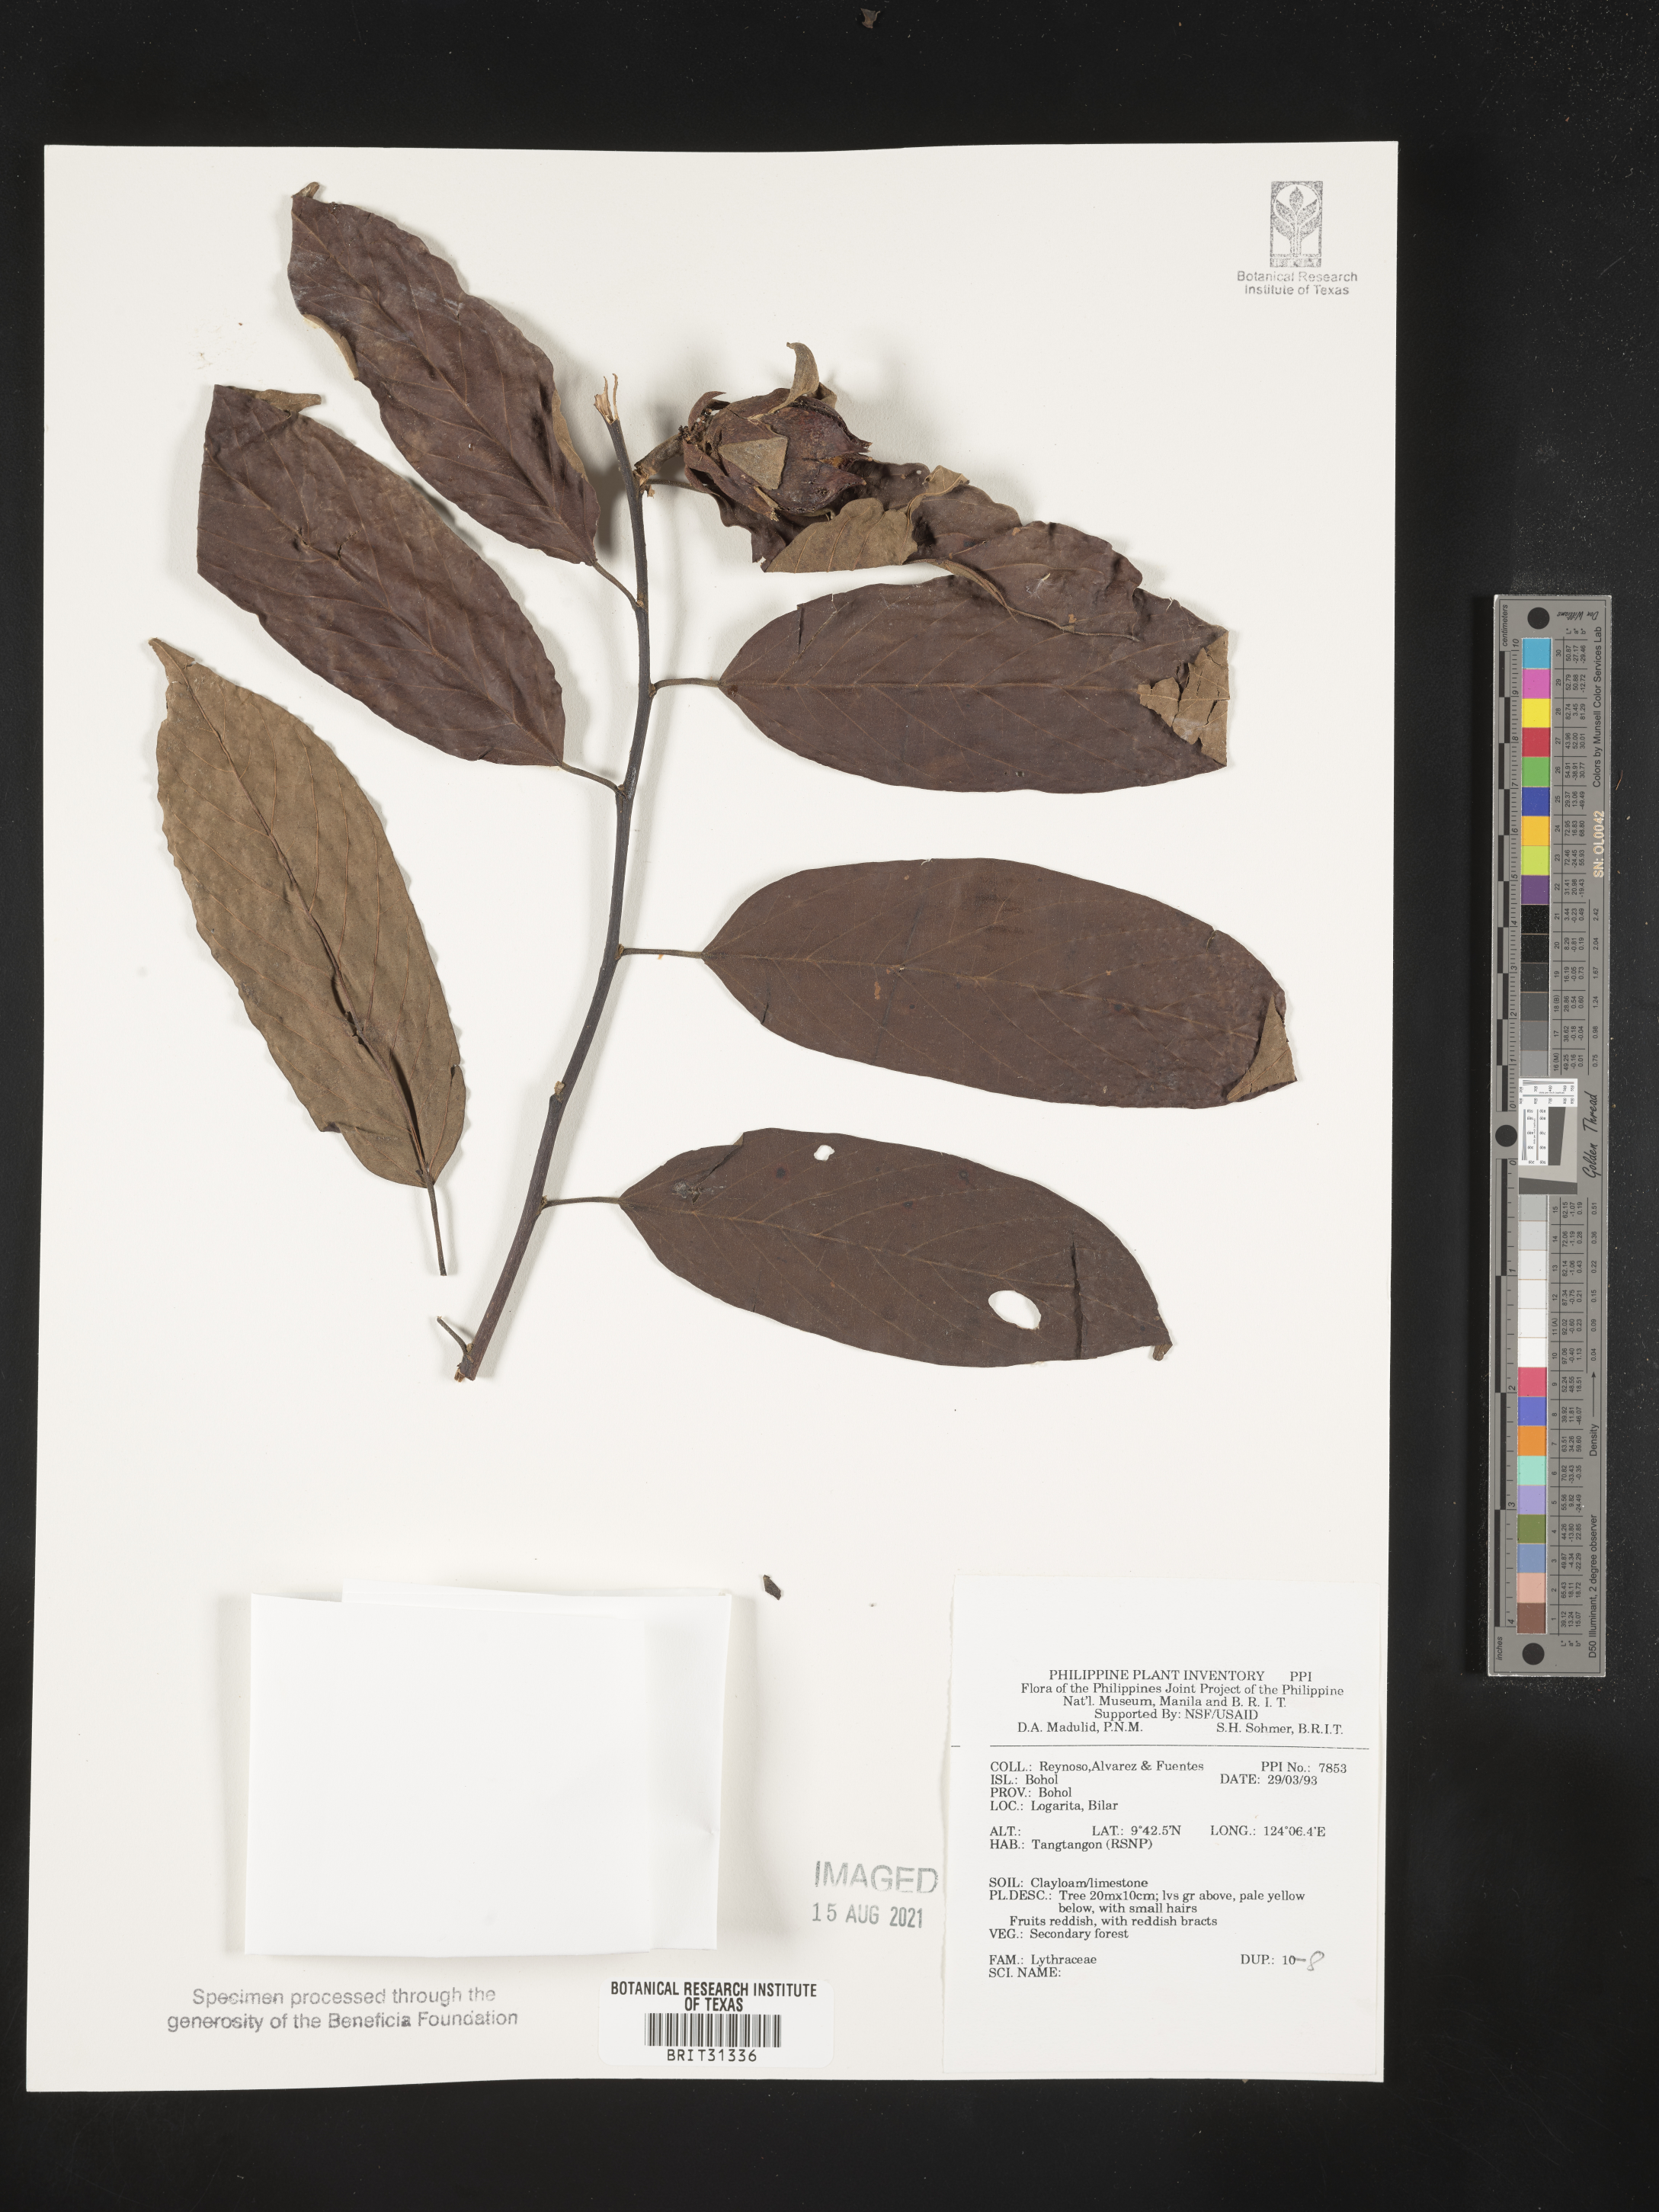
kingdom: Plantae
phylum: Tracheophyta
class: Magnoliopsida
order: Myrtales
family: Lythraceae
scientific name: Lythraceae
